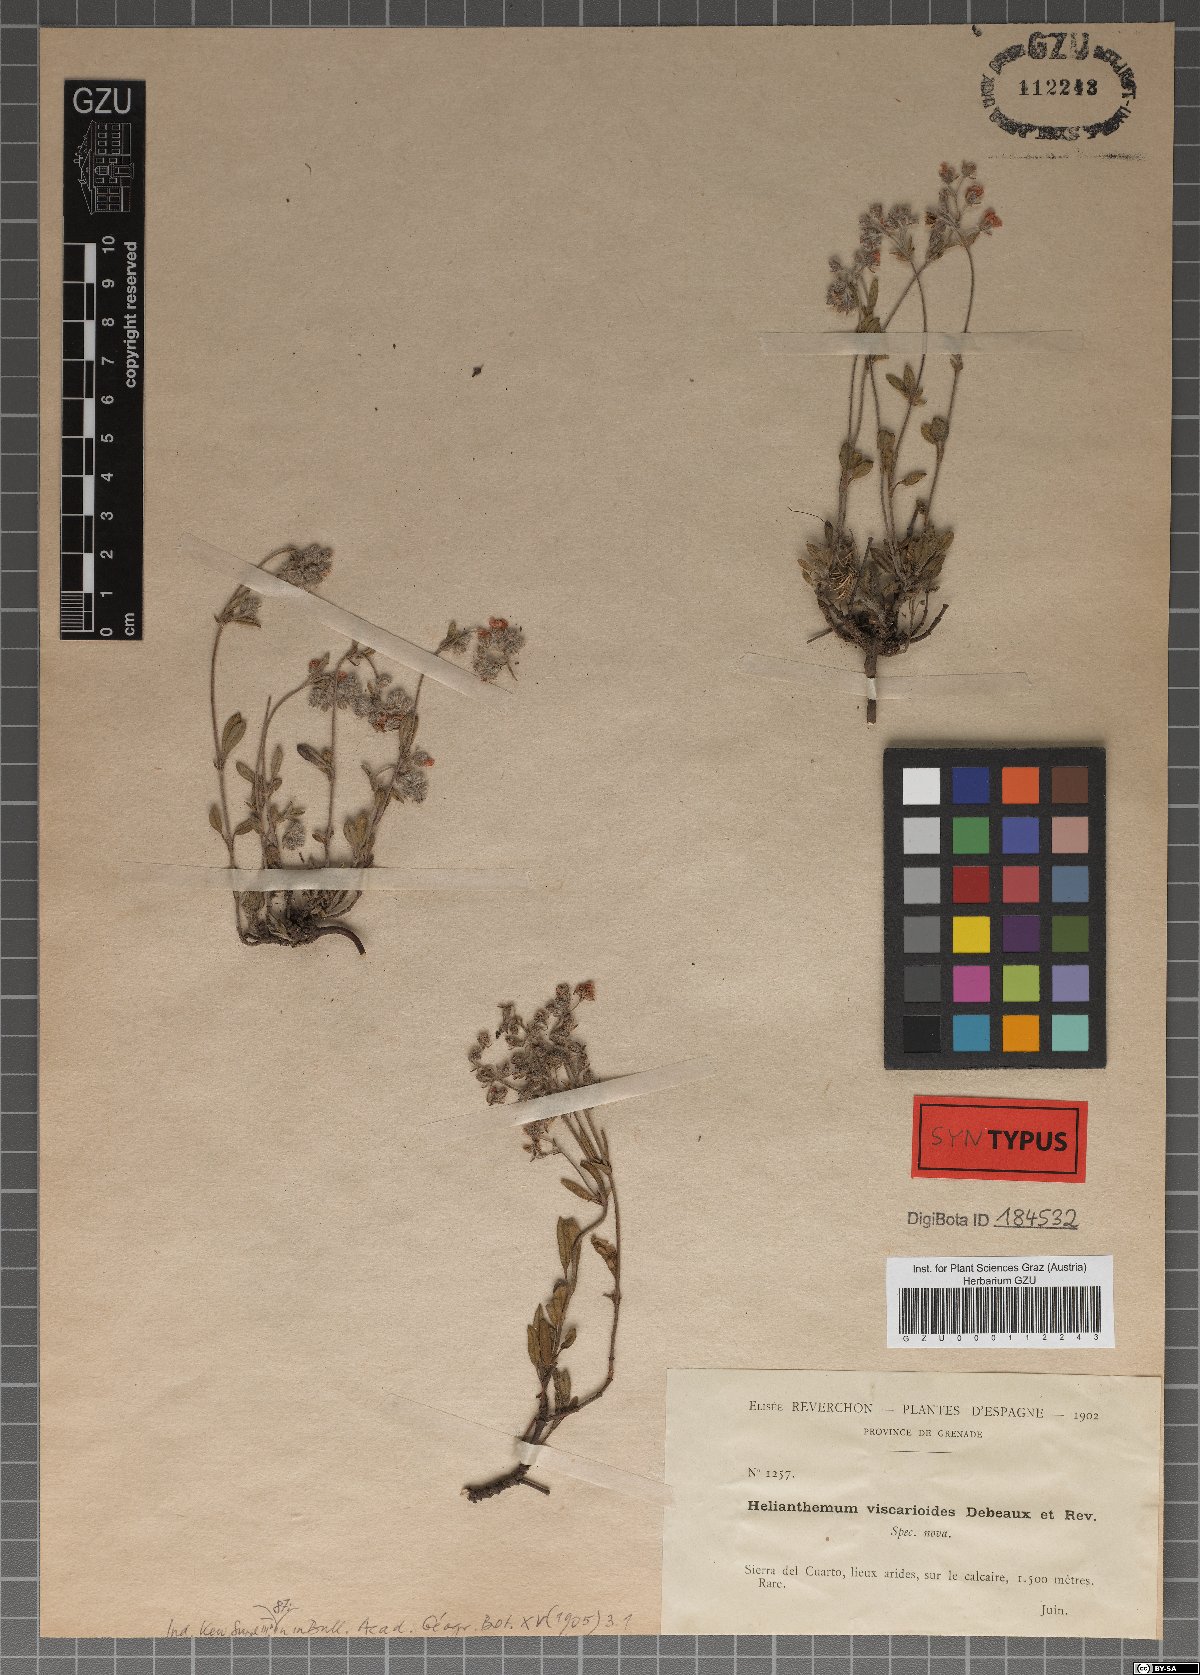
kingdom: Plantae
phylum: Tracheophyta
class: Magnoliopsida
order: Malvales
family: Cistaceae
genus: Helianthemum
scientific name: Helianthemum viscarioides
